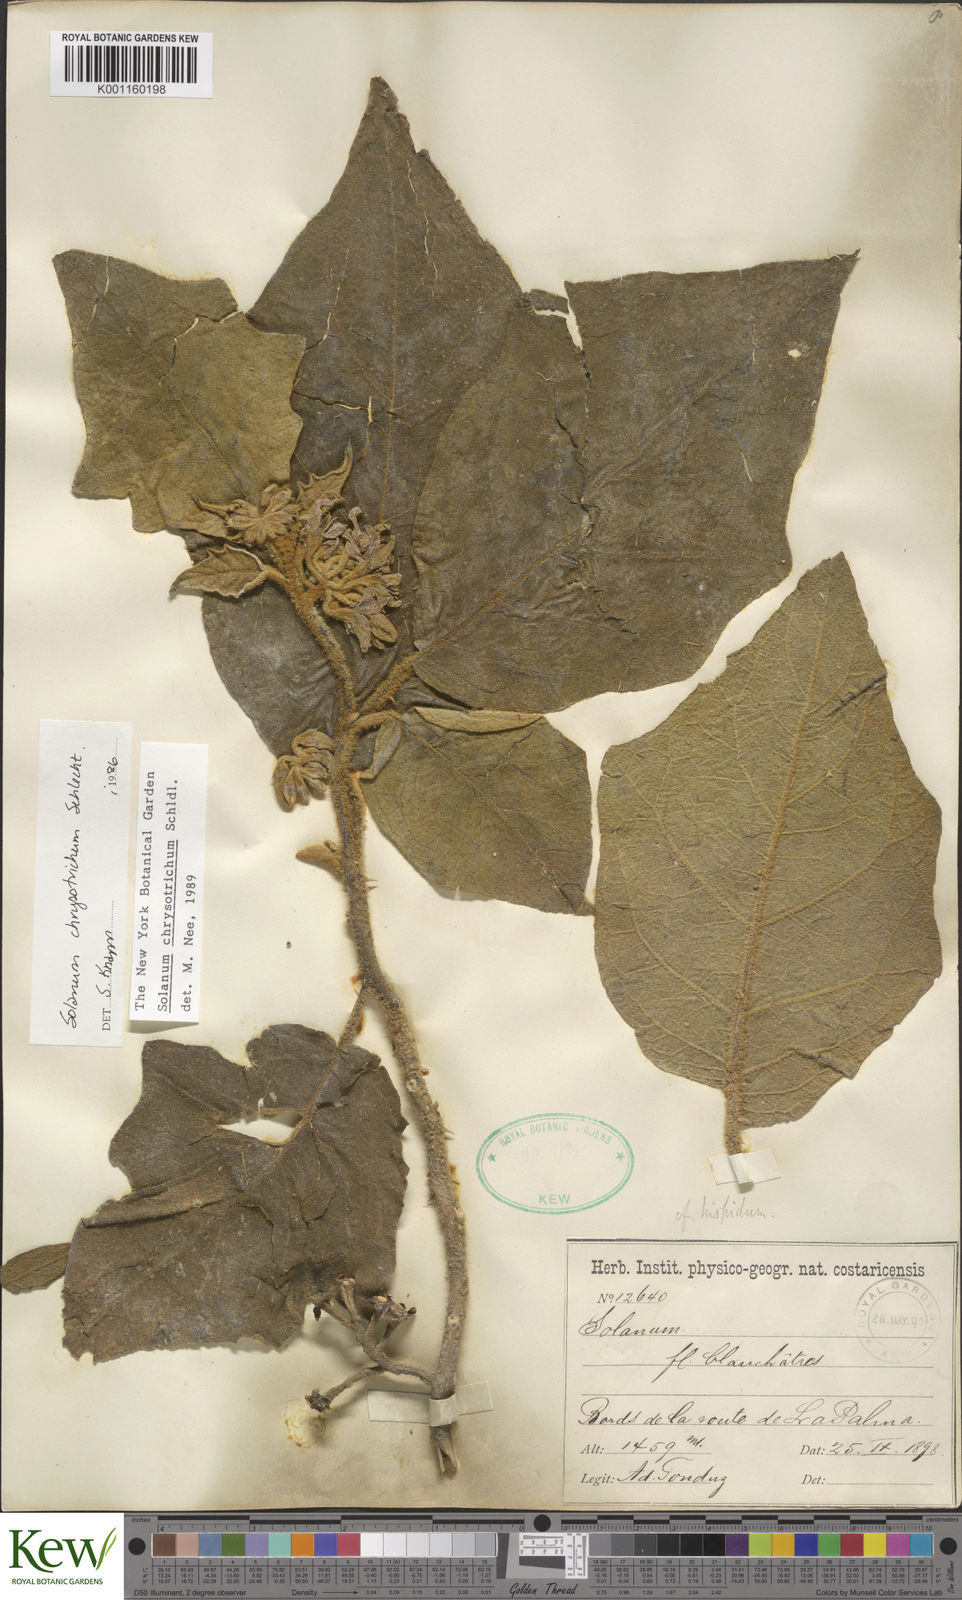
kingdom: Plantae
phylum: Tracheophyta
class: Magnoliopsida
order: Solanales
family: Solanaceae
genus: Solanum
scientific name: Solanum chrysotrichum
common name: Nightshade
